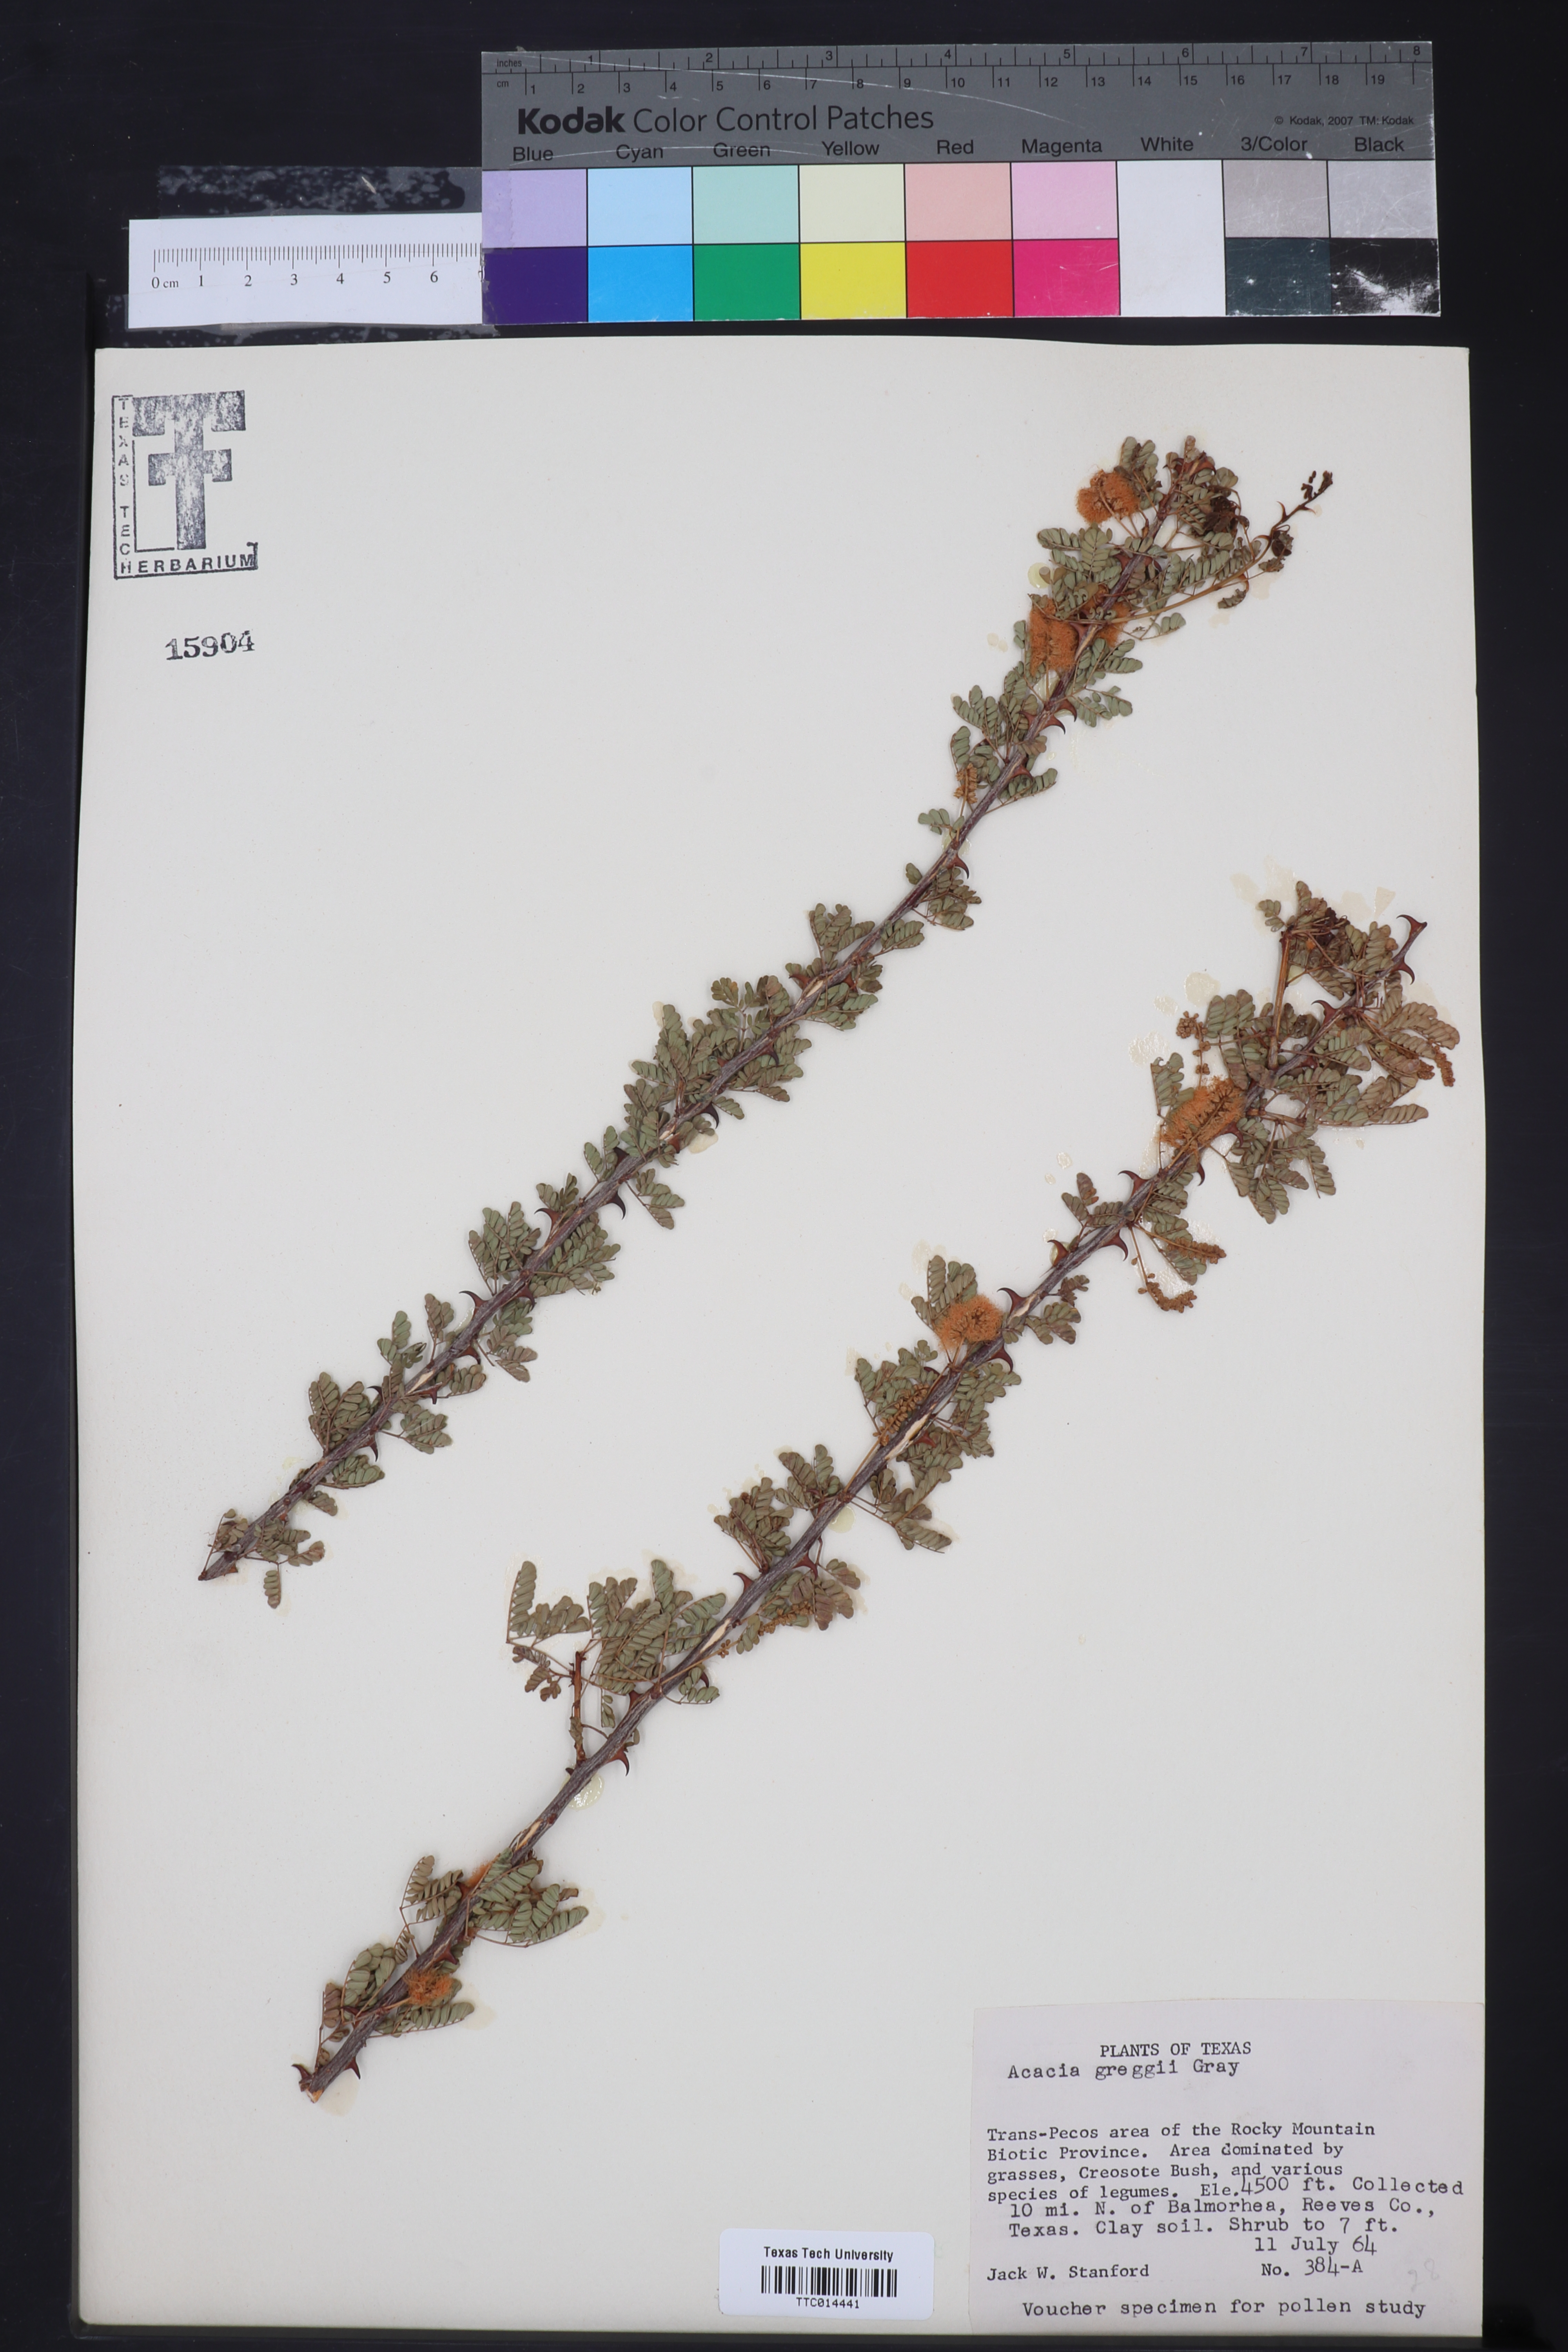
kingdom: Plantae
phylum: Tracheophyta
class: Magnoliopsida
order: Fabales
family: Fabaceae
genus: Senegalia
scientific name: Senegalia greggii
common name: Texas-mimosa
